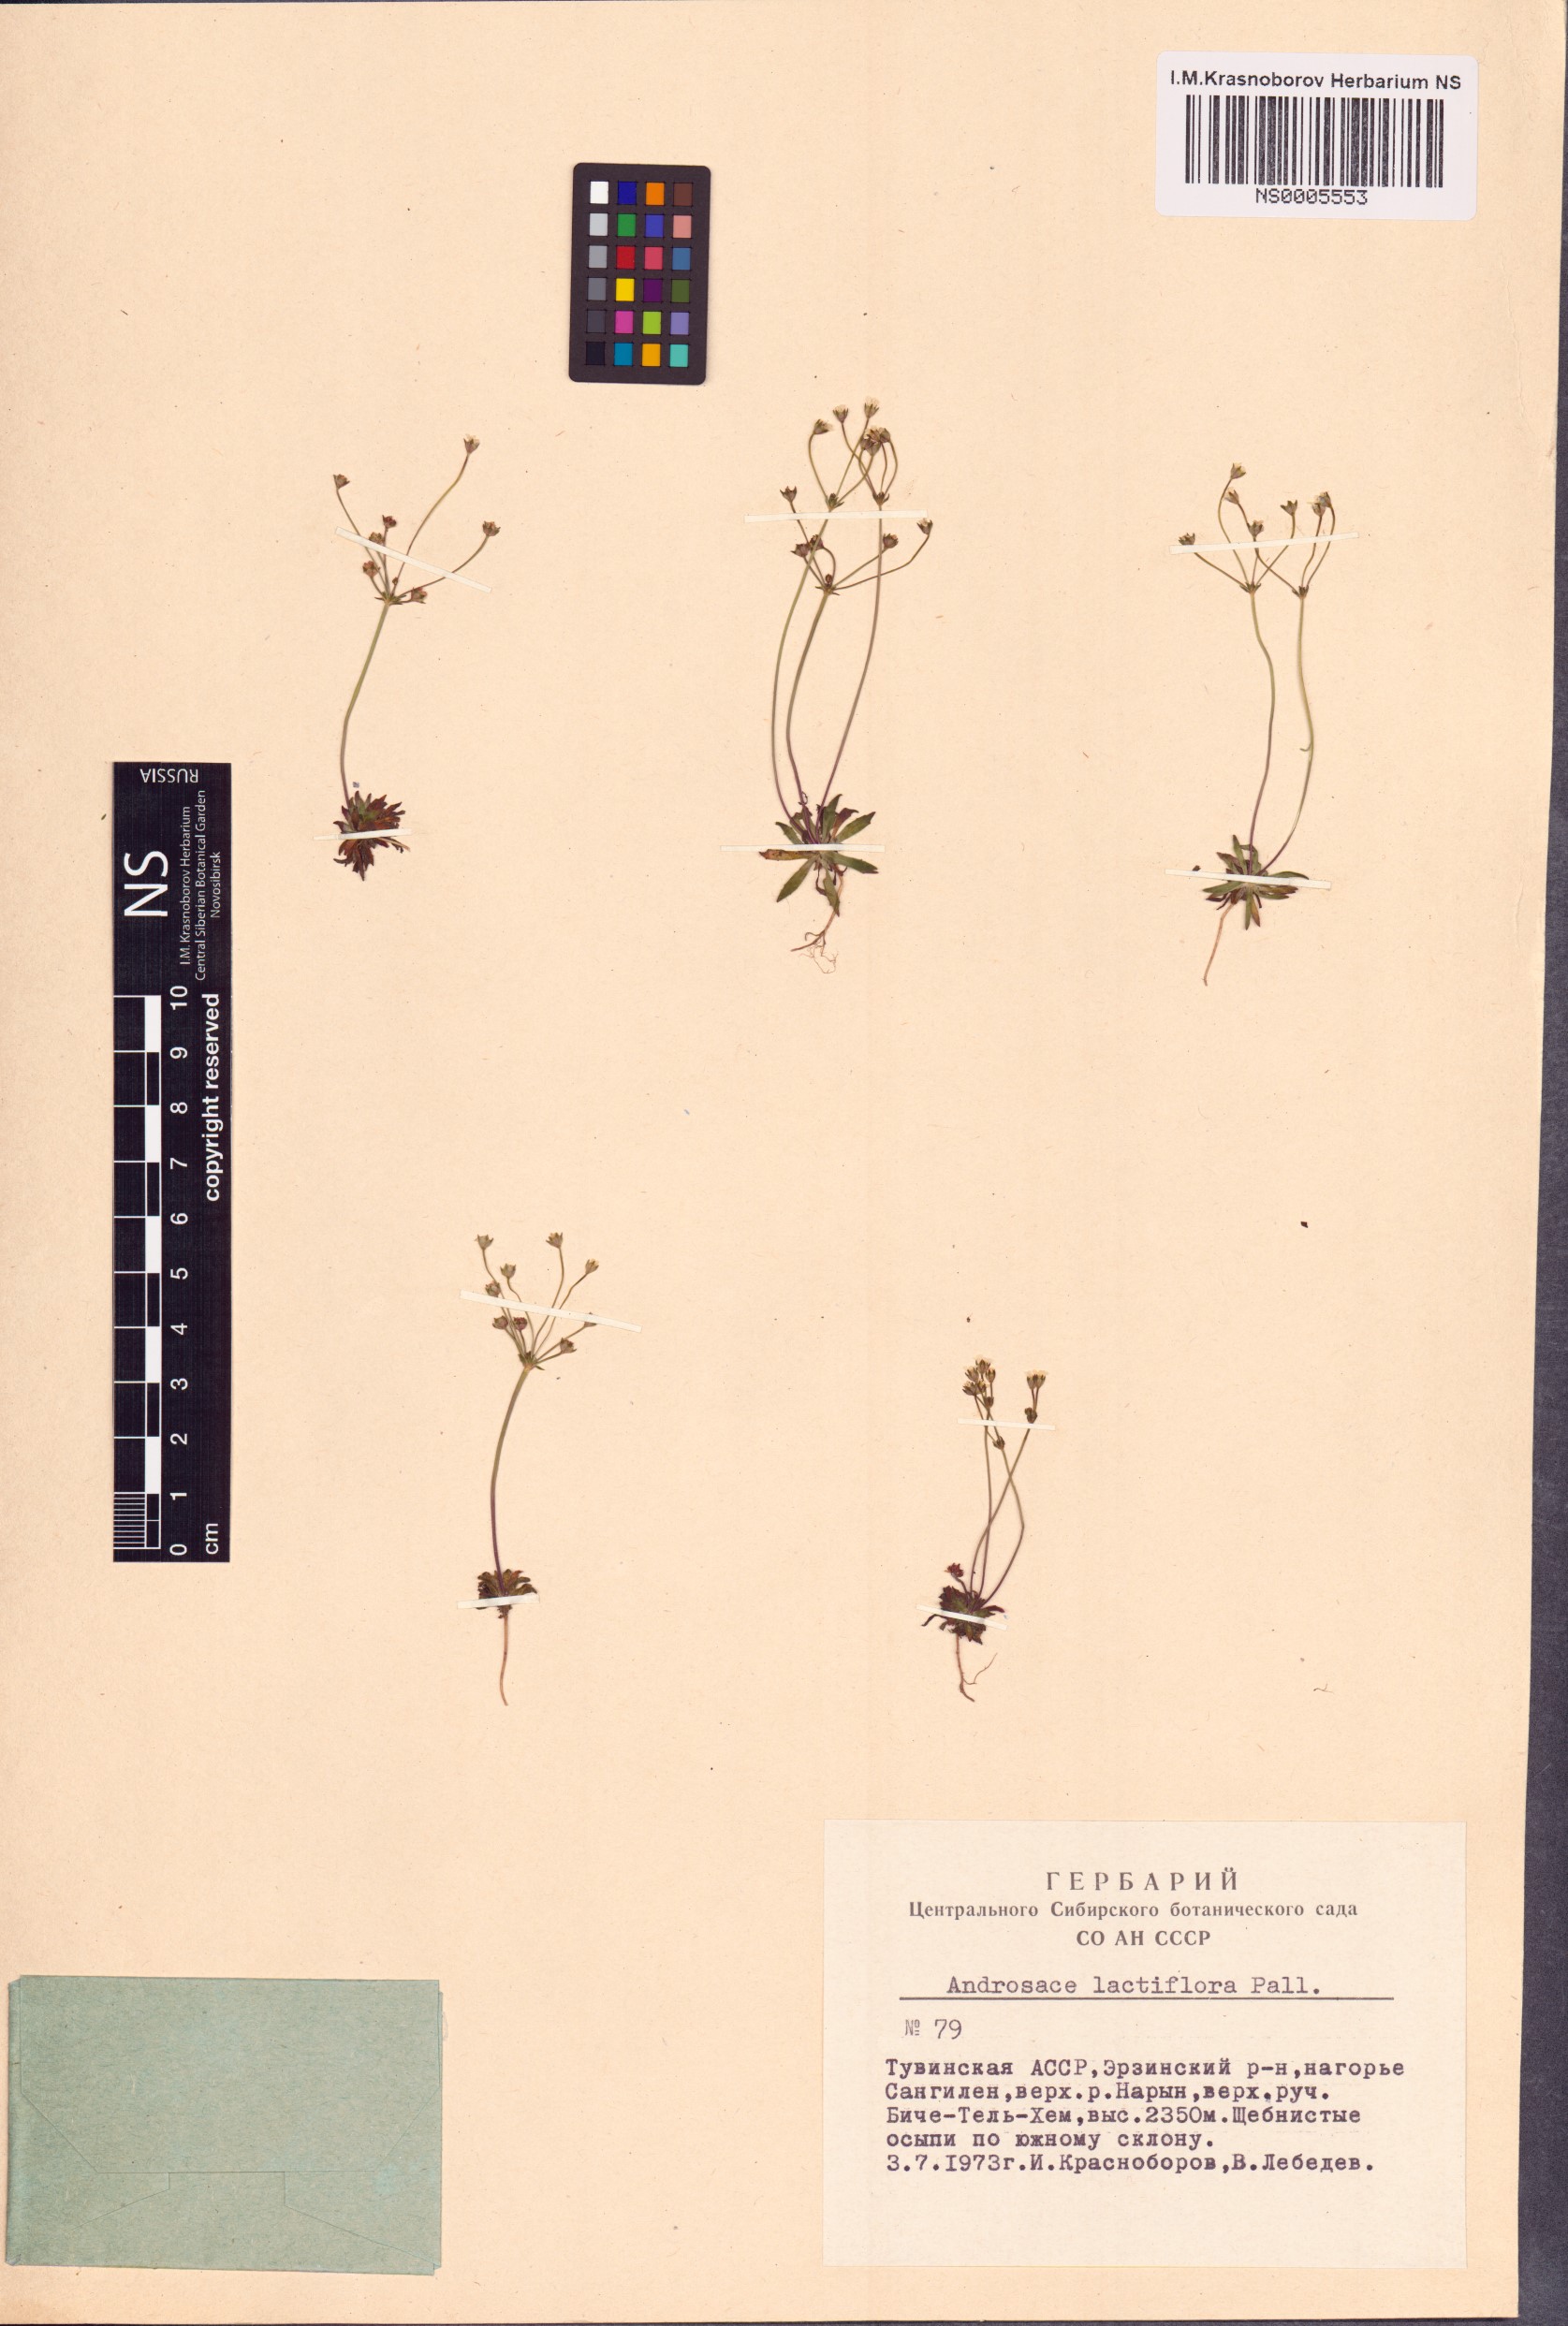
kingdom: Plantae
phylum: Tracheophyta
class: Magnoliopsida
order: Ericales
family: Primulaceae
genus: Androsace
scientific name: Androsace lactiflora
